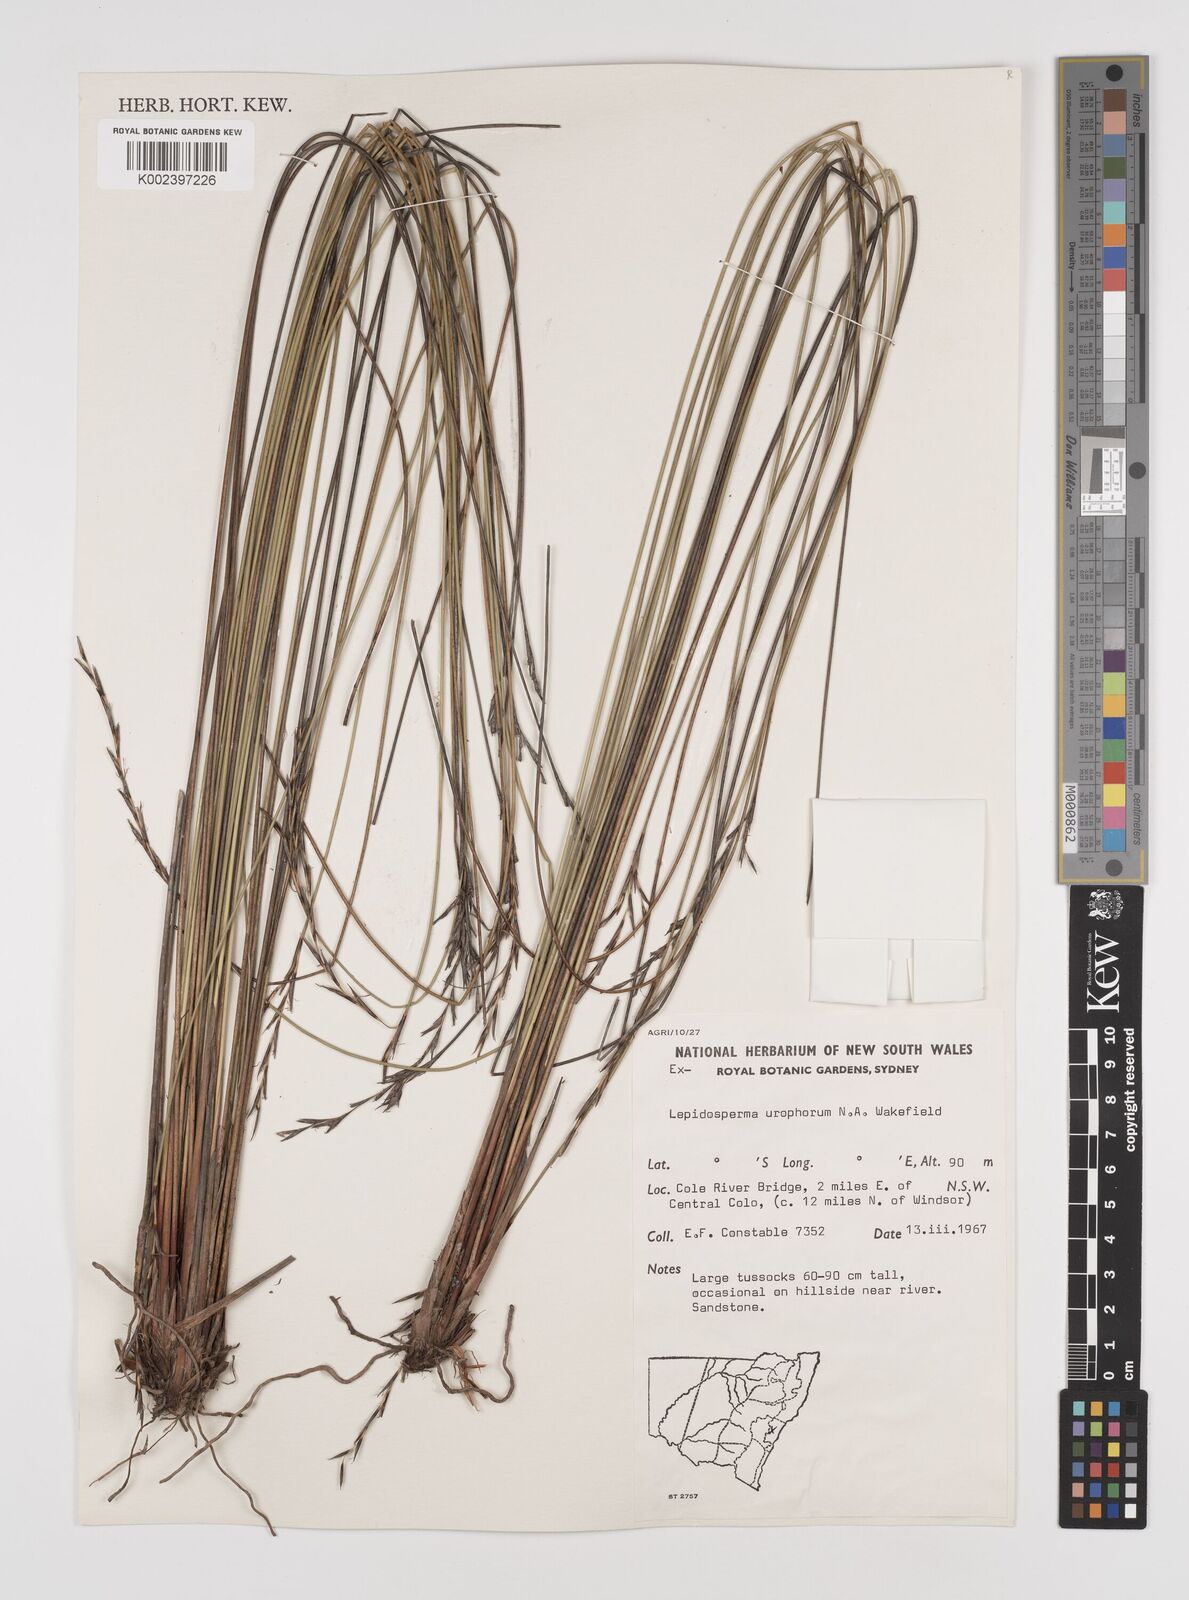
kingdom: Plantae
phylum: Tracheophyta
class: Liliopsida
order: Poales
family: Cyperaceae
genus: Lepidosperma
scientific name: Lepidosperma urophorum
